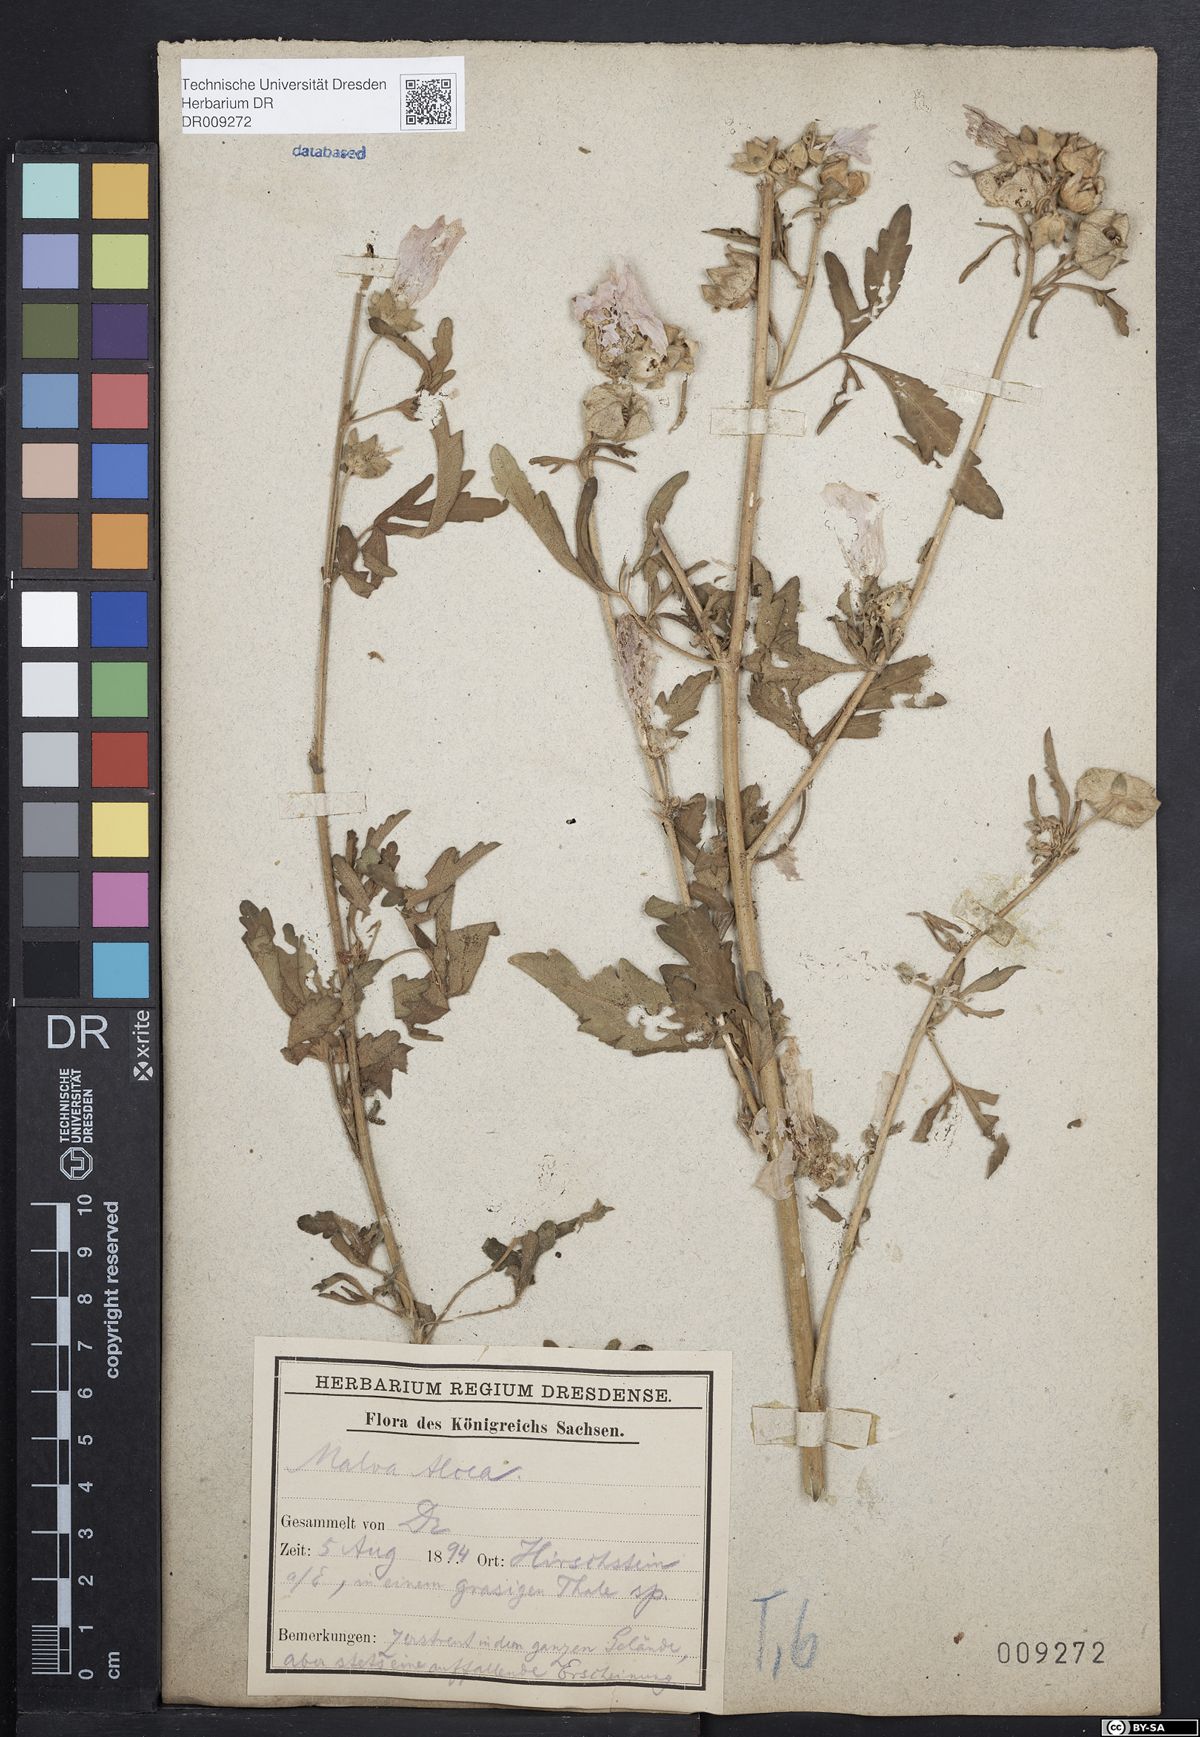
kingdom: Plantae
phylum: Tracheophyta
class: Magnoliopsida
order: Malvales
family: Malvaceae
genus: Malva
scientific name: Malva alcea
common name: Greater musk-mallow
